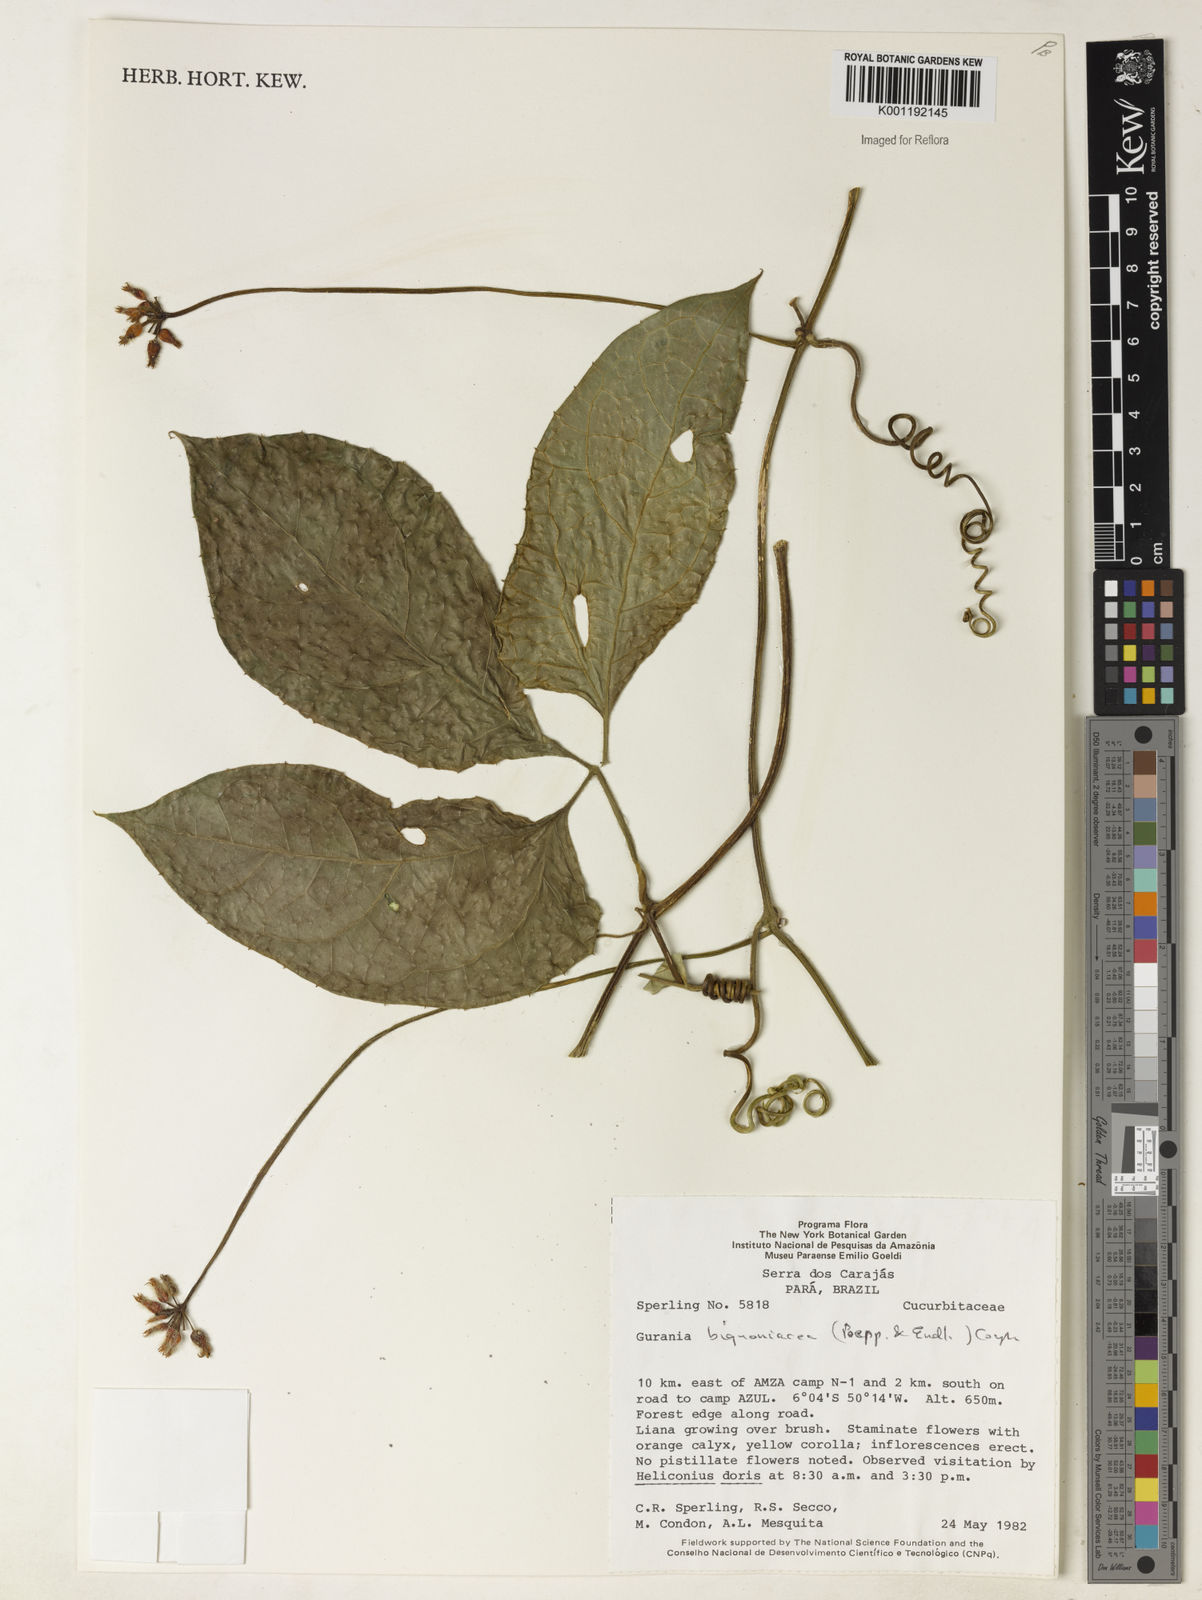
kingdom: Plantae
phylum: Tracheophyta
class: Magnoliopsida
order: Cucurbitales
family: Cucurbitaceae
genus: Gurania
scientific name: Gurania bignoniacea
